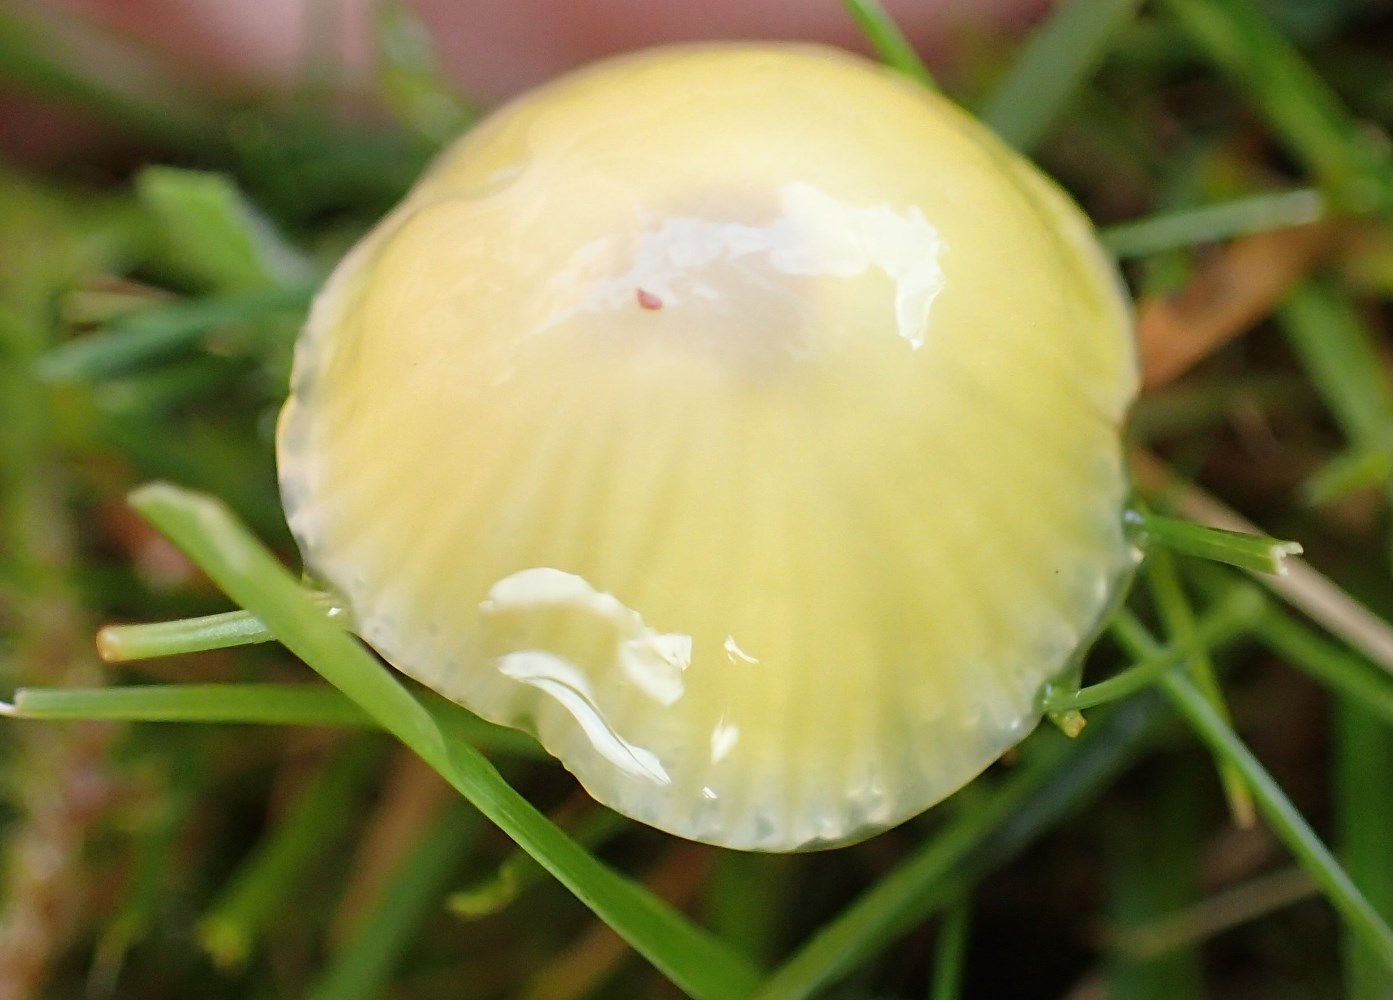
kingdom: Fungi
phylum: Basidiomycota
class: Agaricomycetes
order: Agaricales
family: Hygrophoraceae
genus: Hygrocybe
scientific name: Hygrocybe glutinipes
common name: slimstokket vokshat
